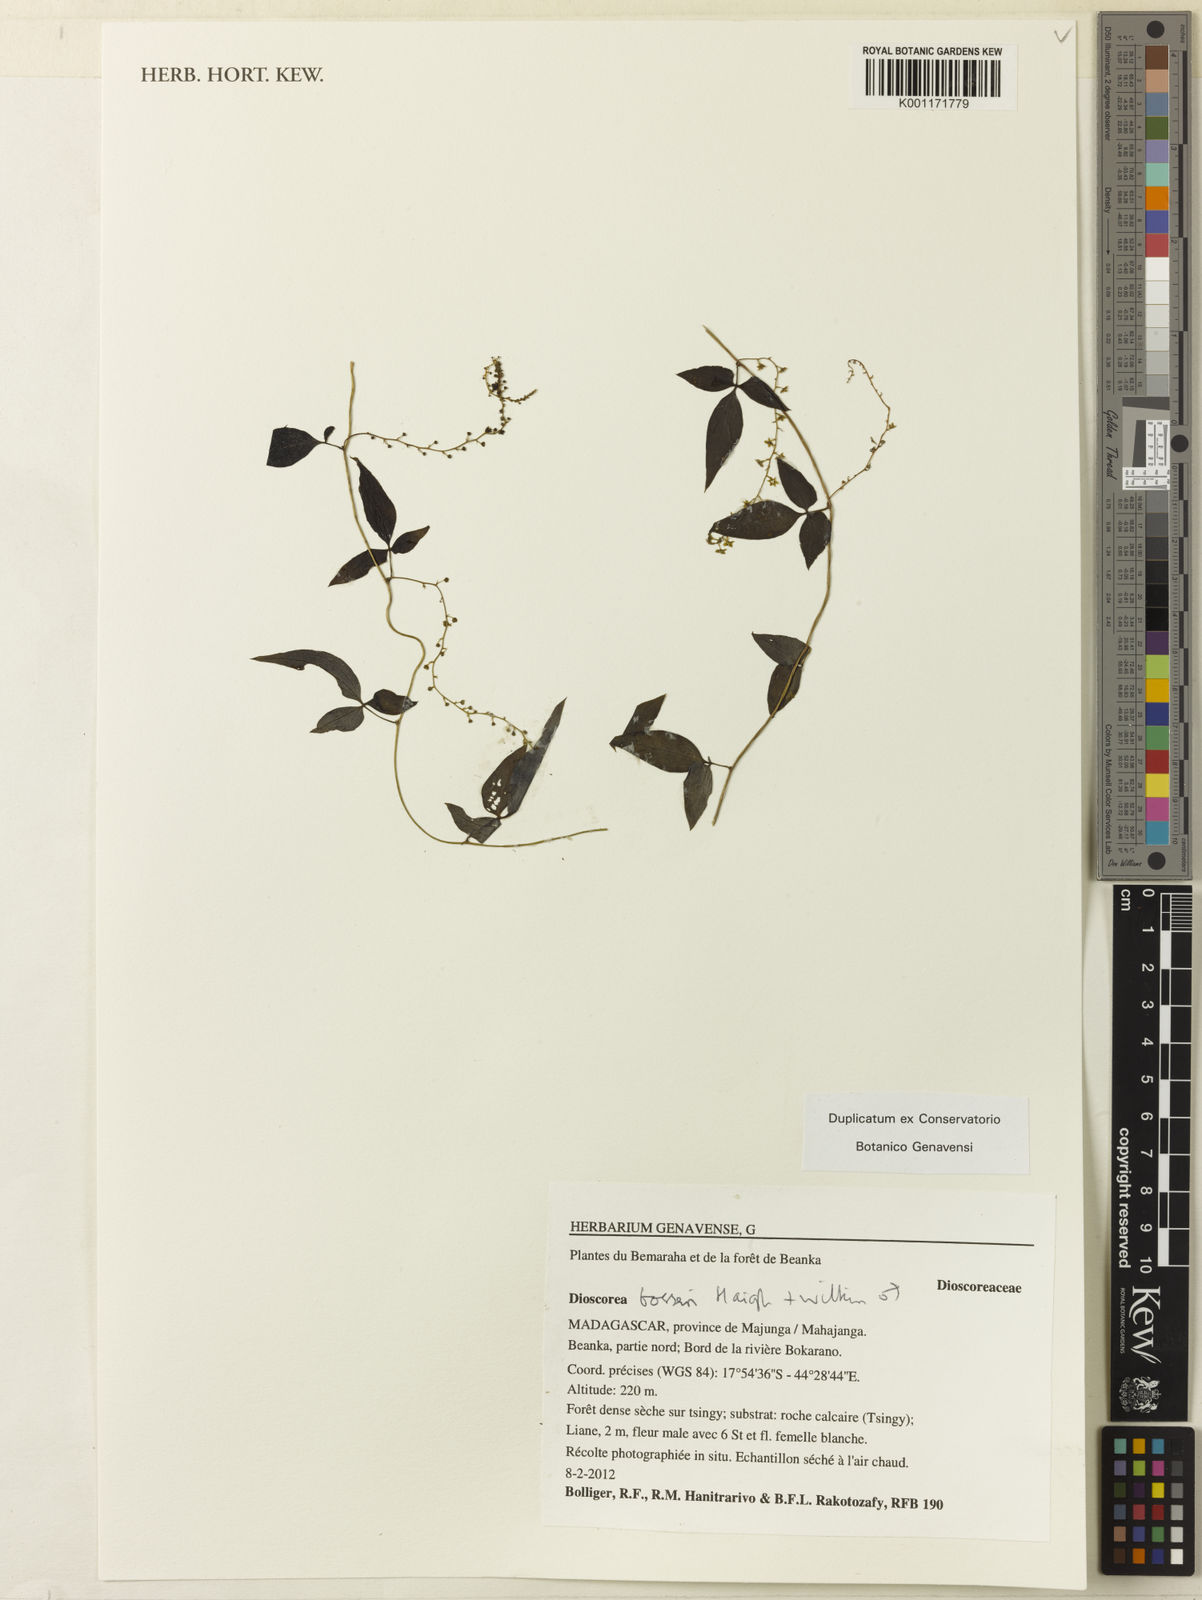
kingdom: Plantae
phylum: Tracheophyta
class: Liliopsida
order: Dioscoreales
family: Dioscoreaceae
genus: Dioscorea
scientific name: Dioscorea bosseri
